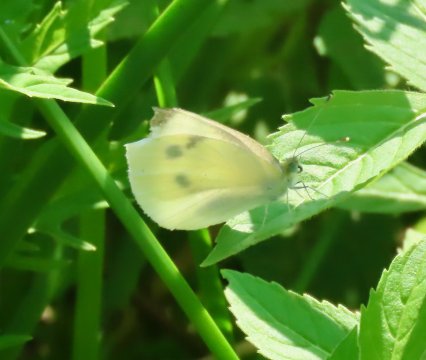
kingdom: Animalia
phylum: Arthropoda
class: Insecta
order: Lepidoptera
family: Pieridae
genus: Pieris
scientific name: Pieris rapae
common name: Cabbage White
